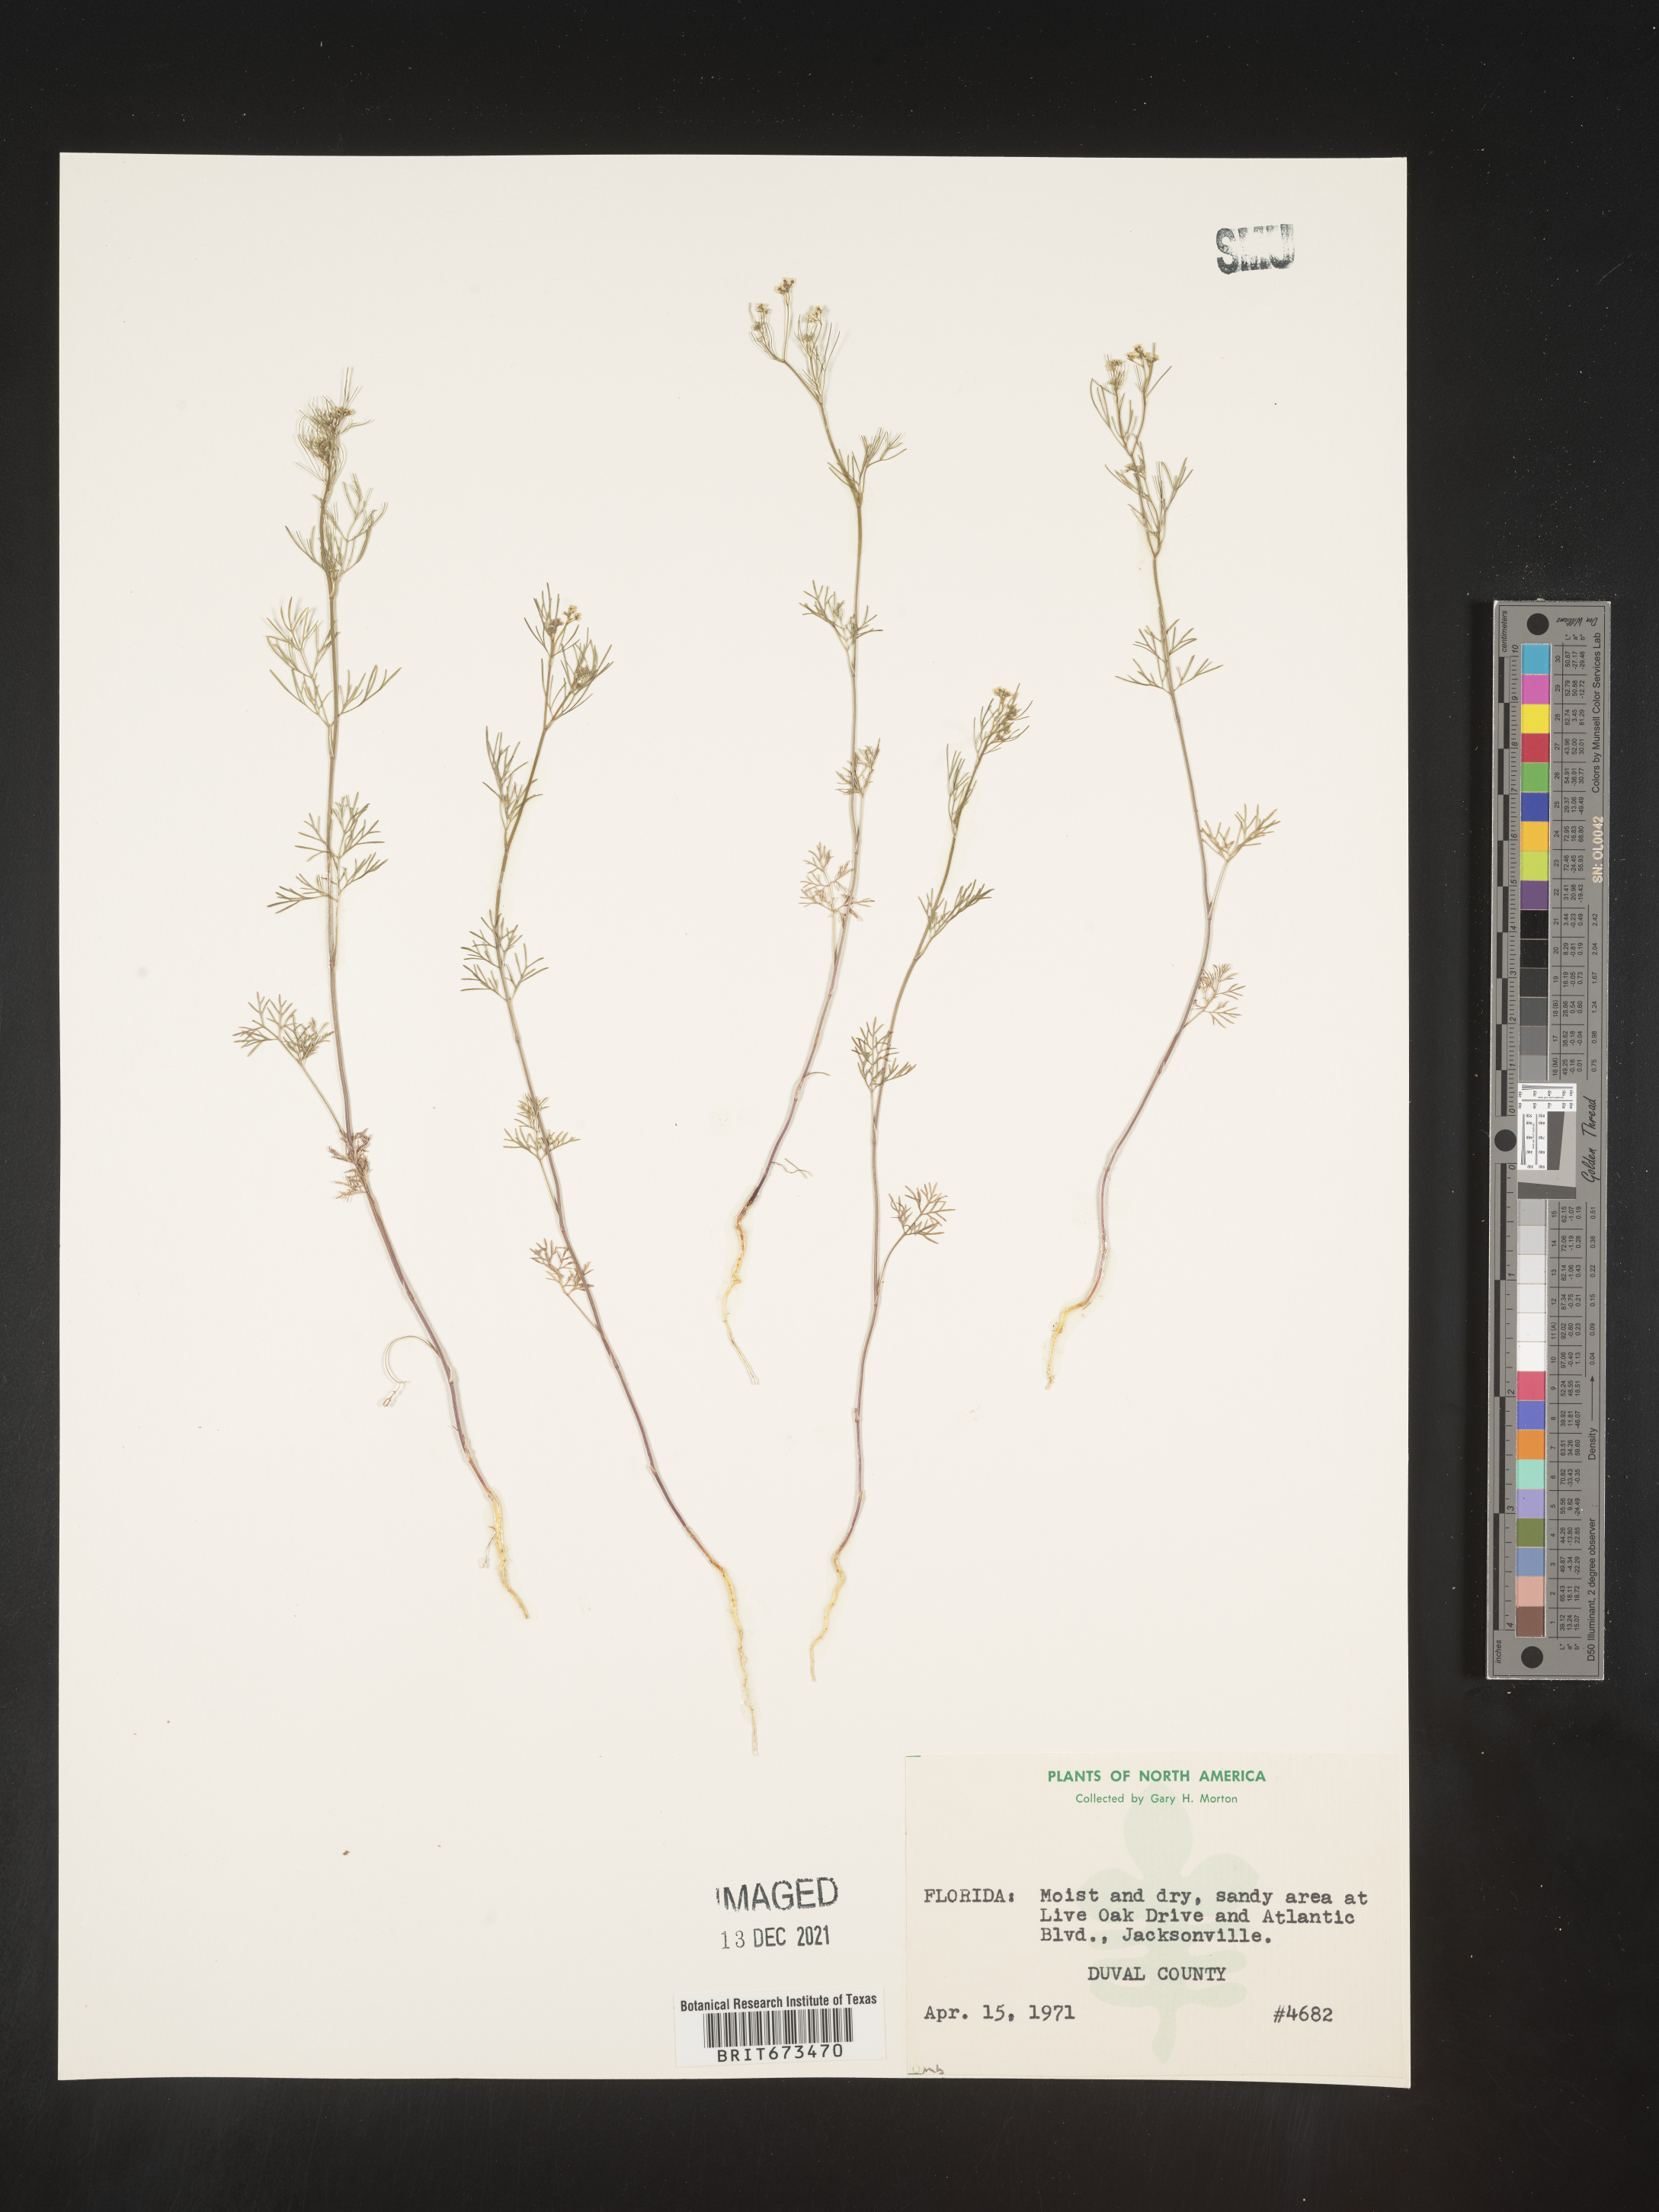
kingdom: Plantae
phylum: Tracheophyta
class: Magnoliopsida
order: Apiales
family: Apiaceae
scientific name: Apiaceae
